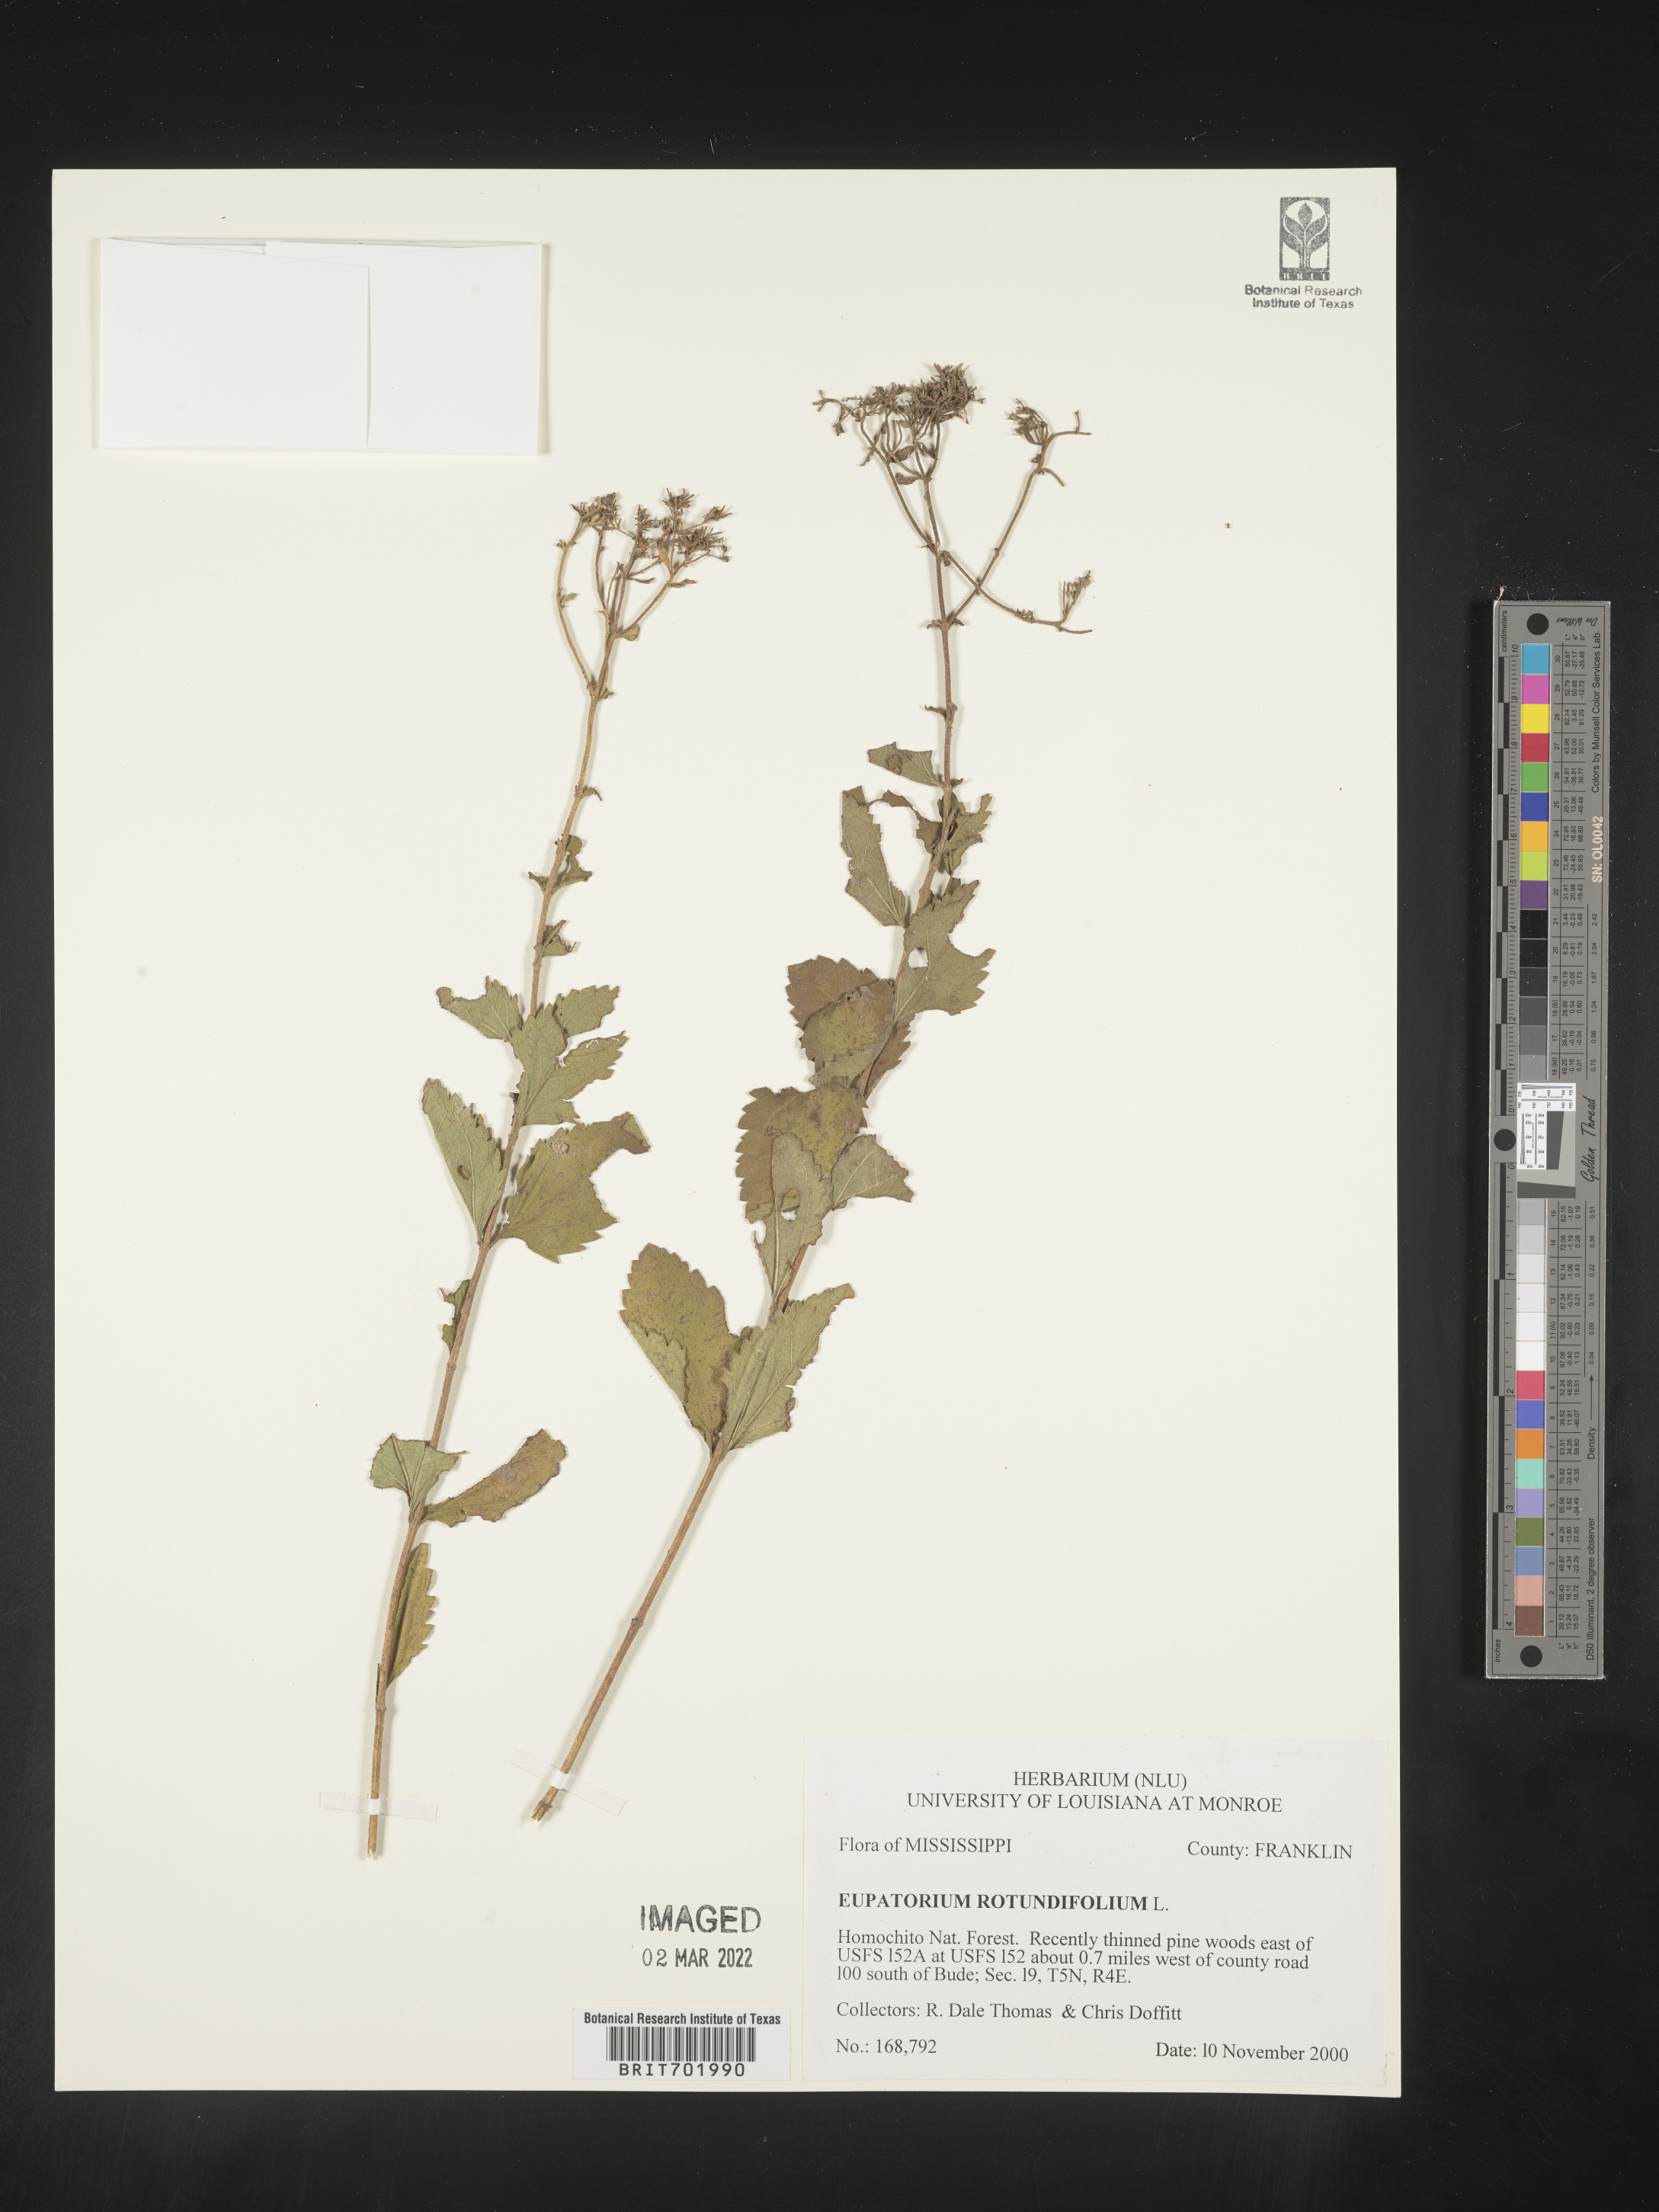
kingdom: Plantae
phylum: Tracheophyta
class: Magnoliopsida
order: Asterales
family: Asteraceae
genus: Eupatorium
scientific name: Eupatorium rotundifolium
